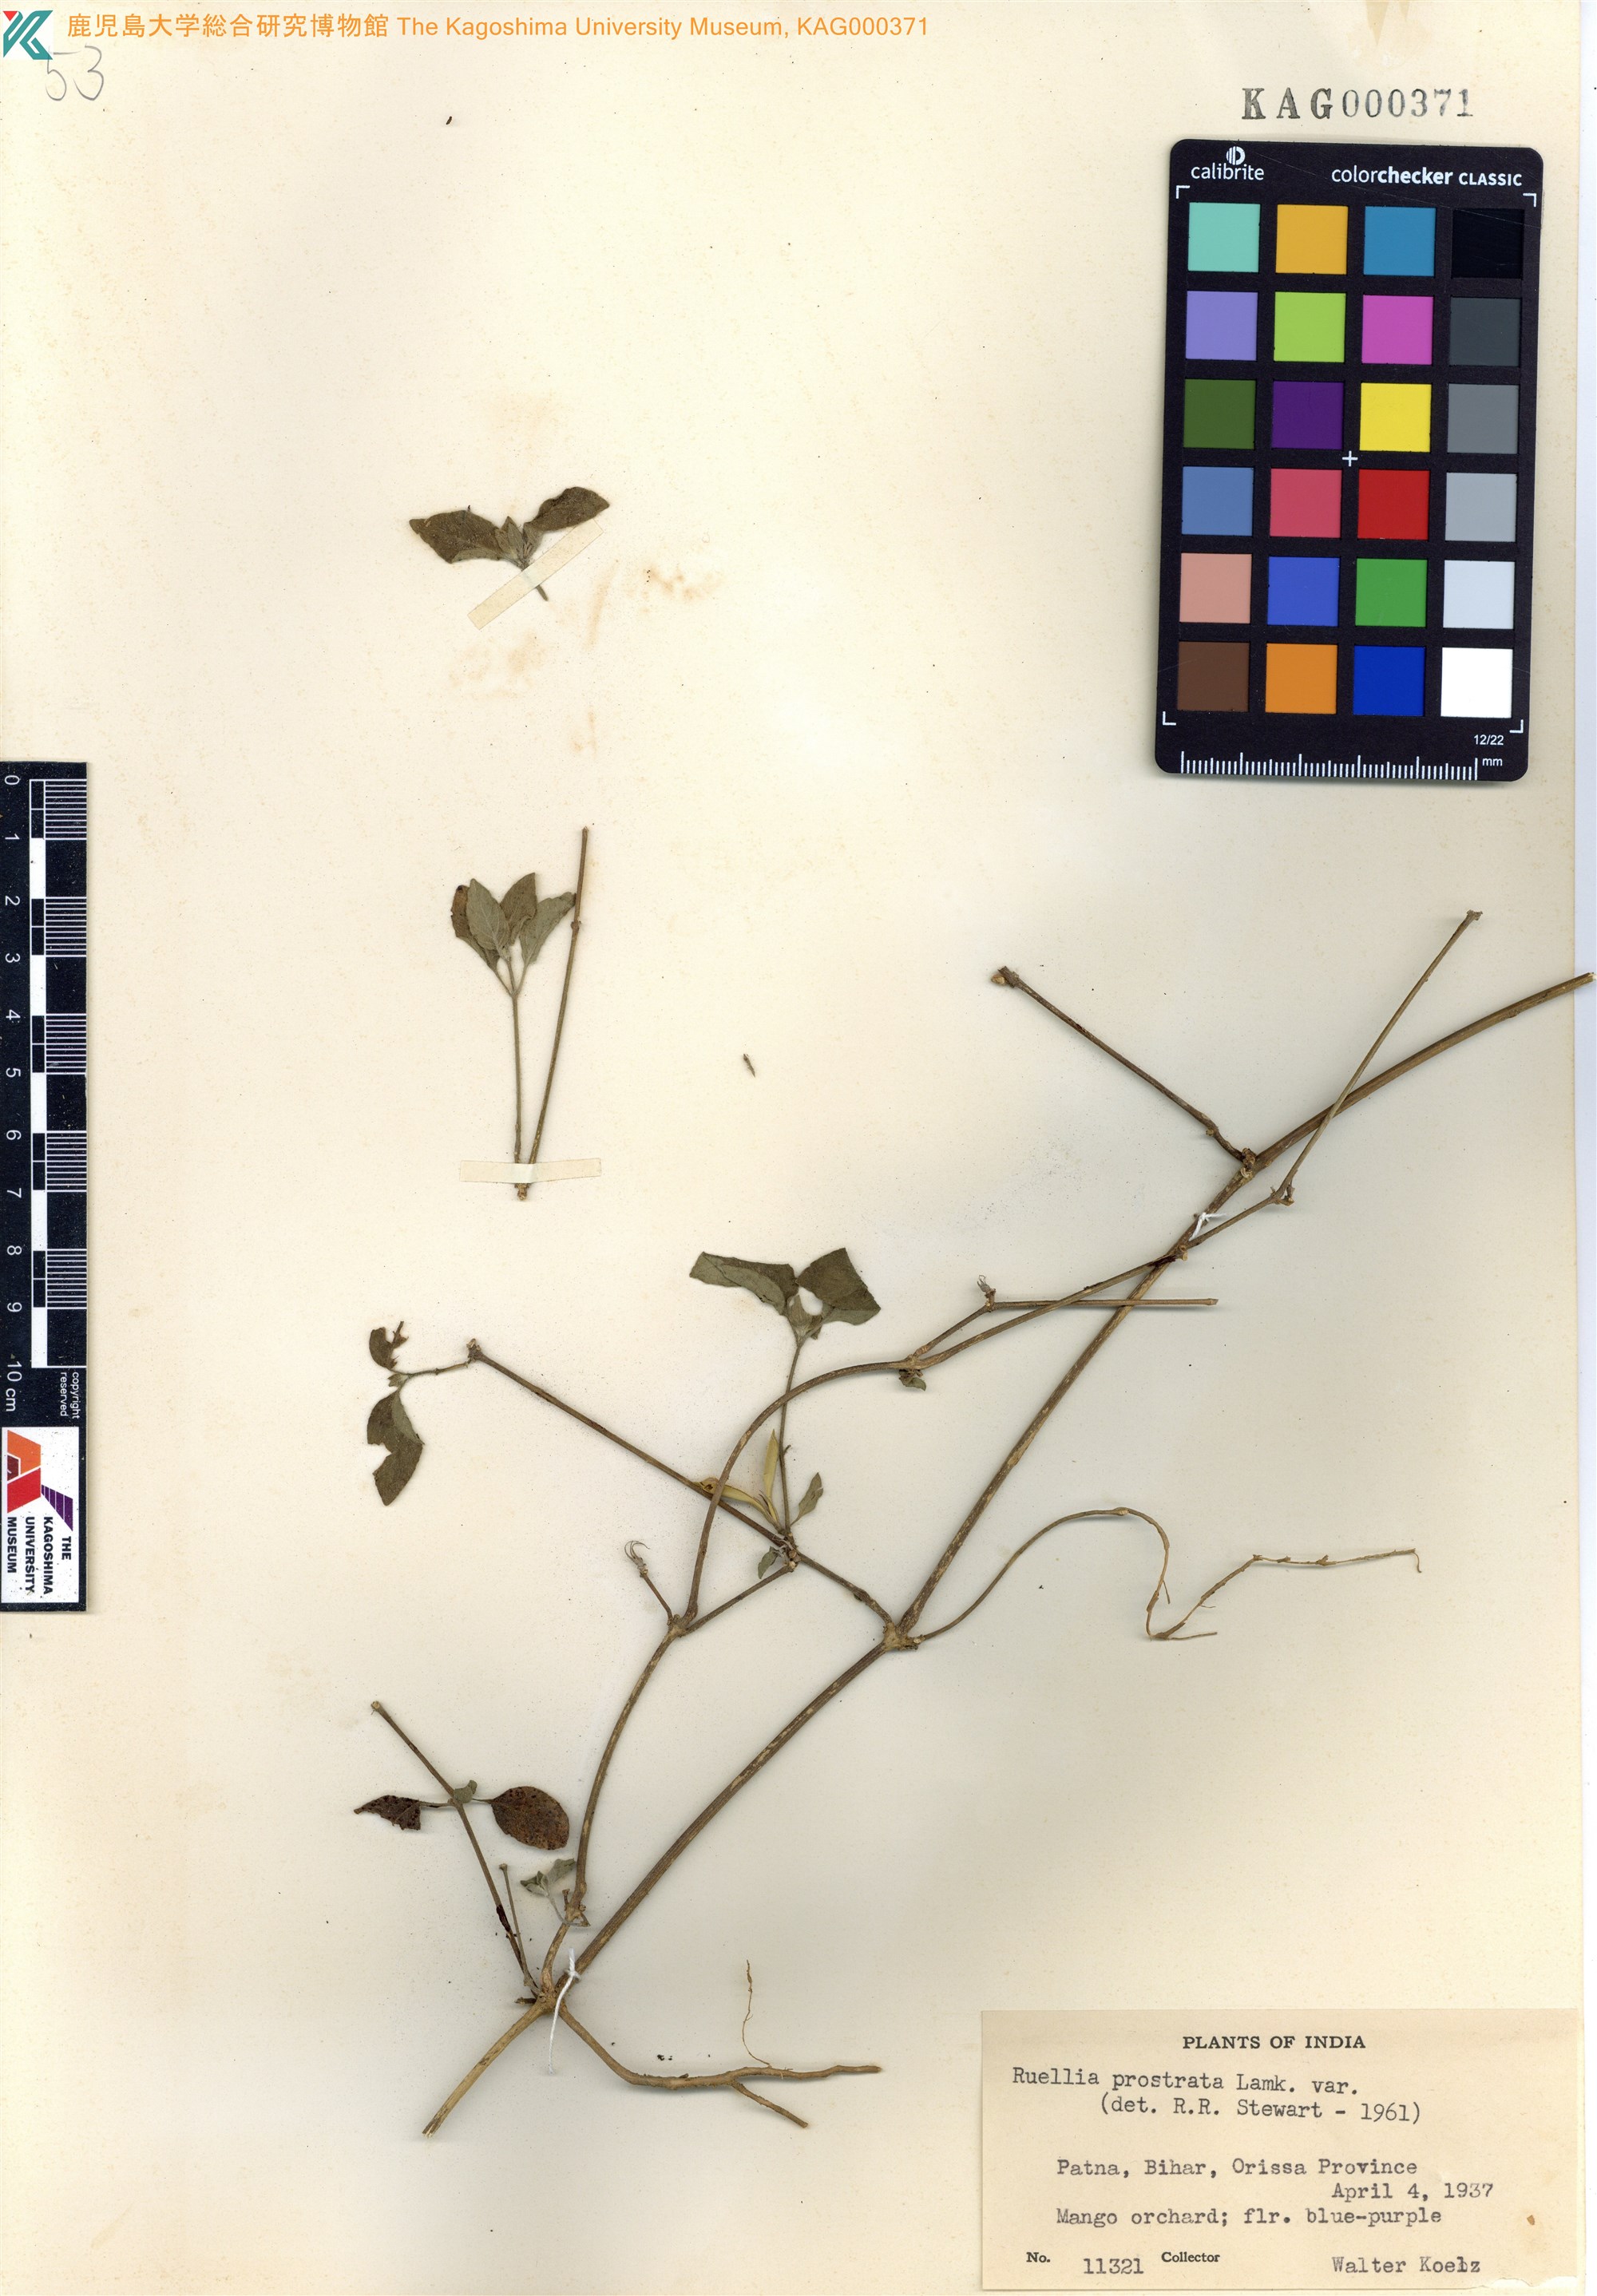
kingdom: Plantae
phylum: Tracheophyta
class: Magnoliopsida
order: Lamiales
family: Acanthaceae
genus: Ruellia
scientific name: Ruellia prostrata
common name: Prostrate wild petunia
